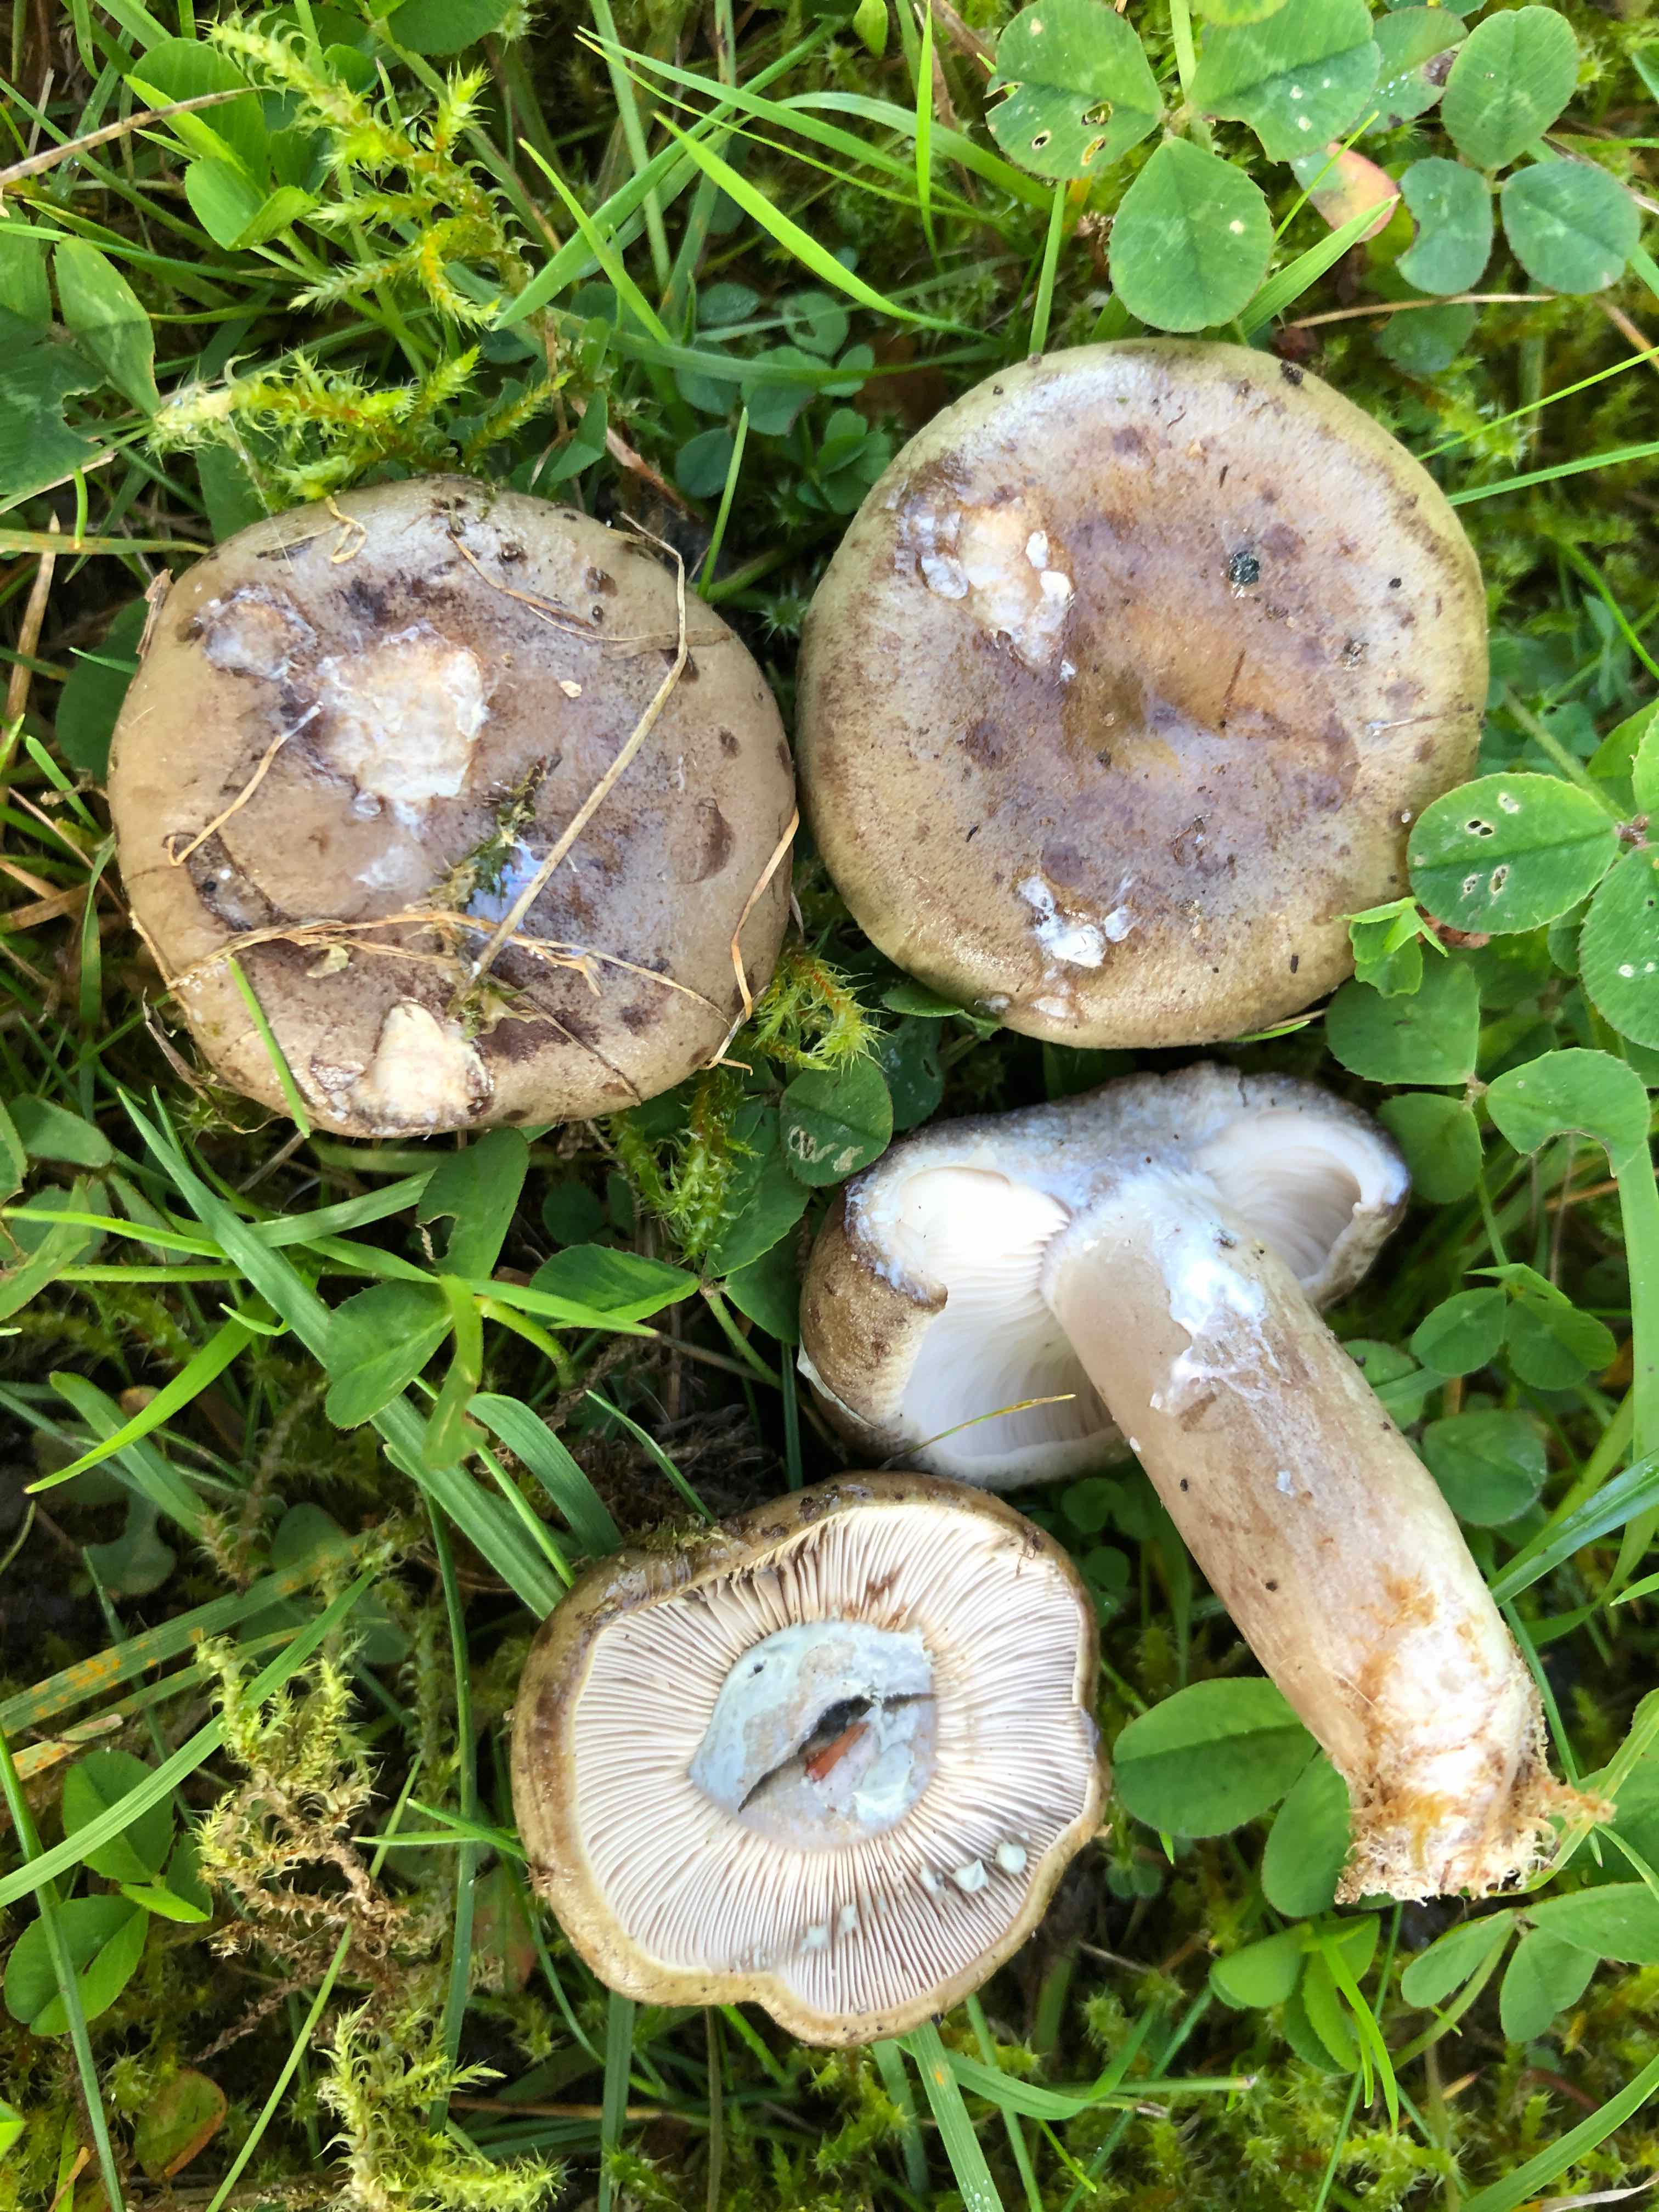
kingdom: Fungi
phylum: Basidiomycota
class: Agaricomycetes
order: Russulales
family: Russulaceae
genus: Lactarius
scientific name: Lactarius blennius
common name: dråbeplettet mælkehat
